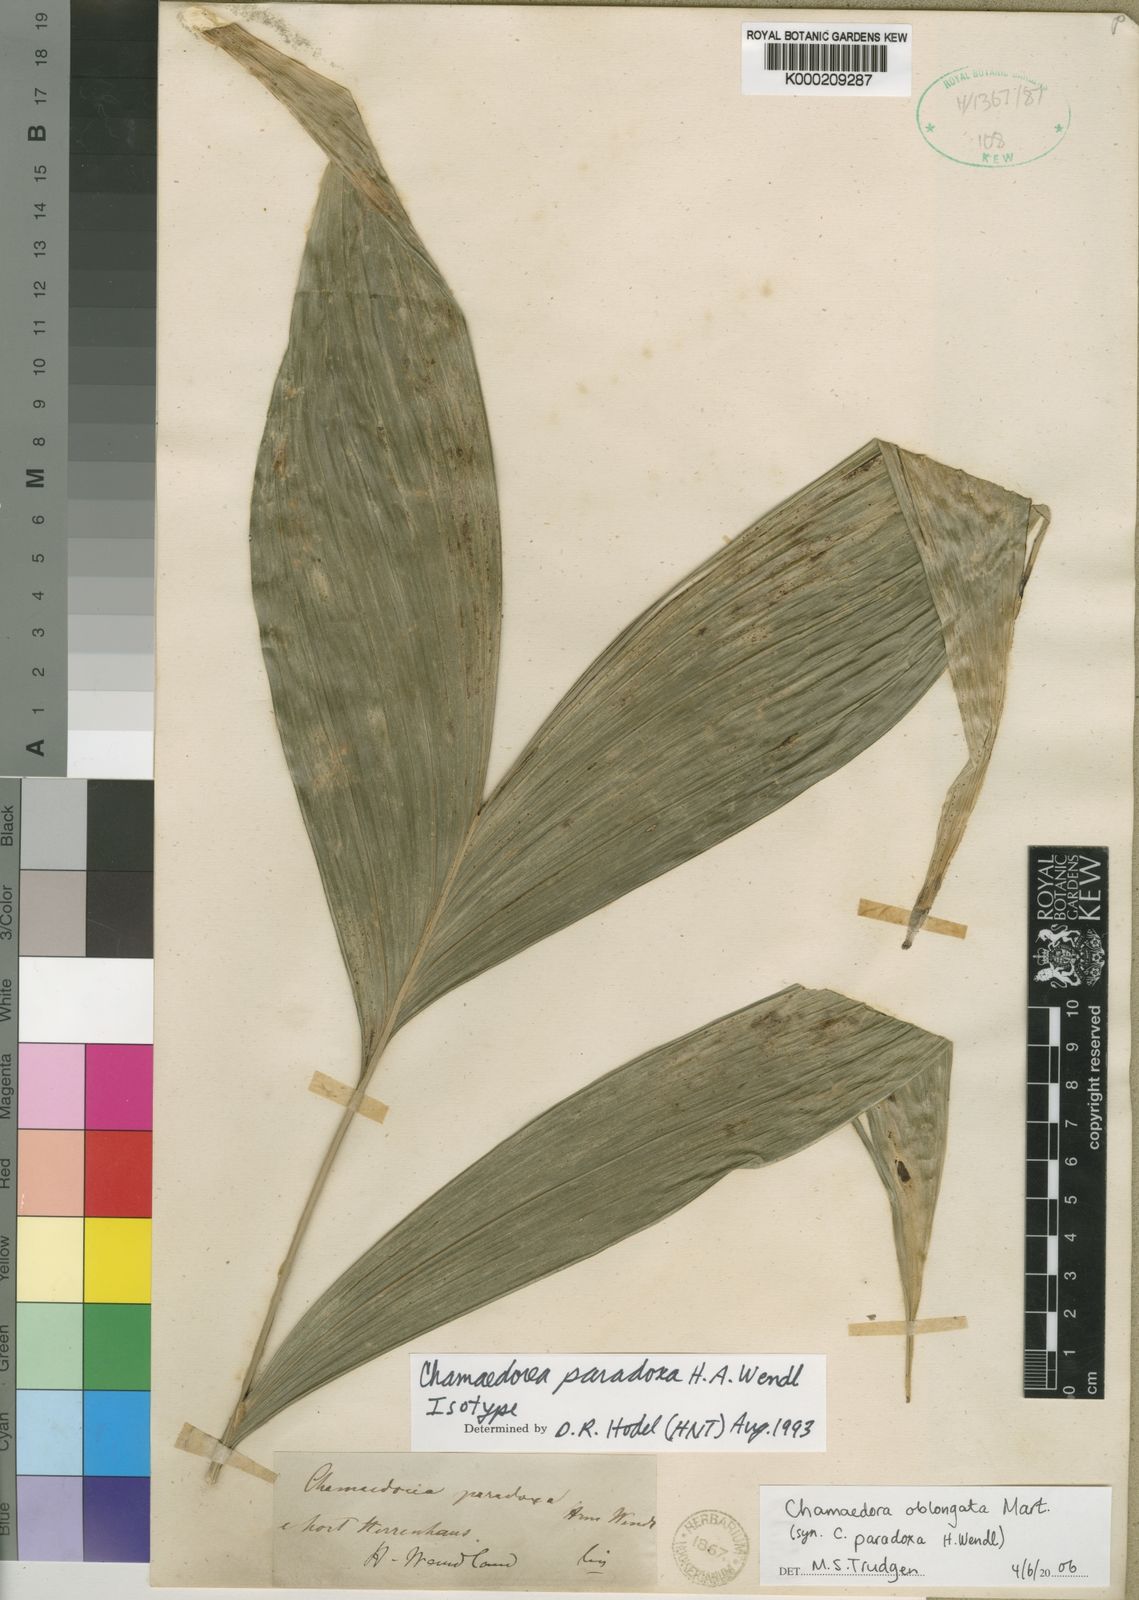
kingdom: Plantae
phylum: Tracheophyta
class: Liliopsida
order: Arecales
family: Arecaceae
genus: Chamaedorea
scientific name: Chamaedorea oblongata
